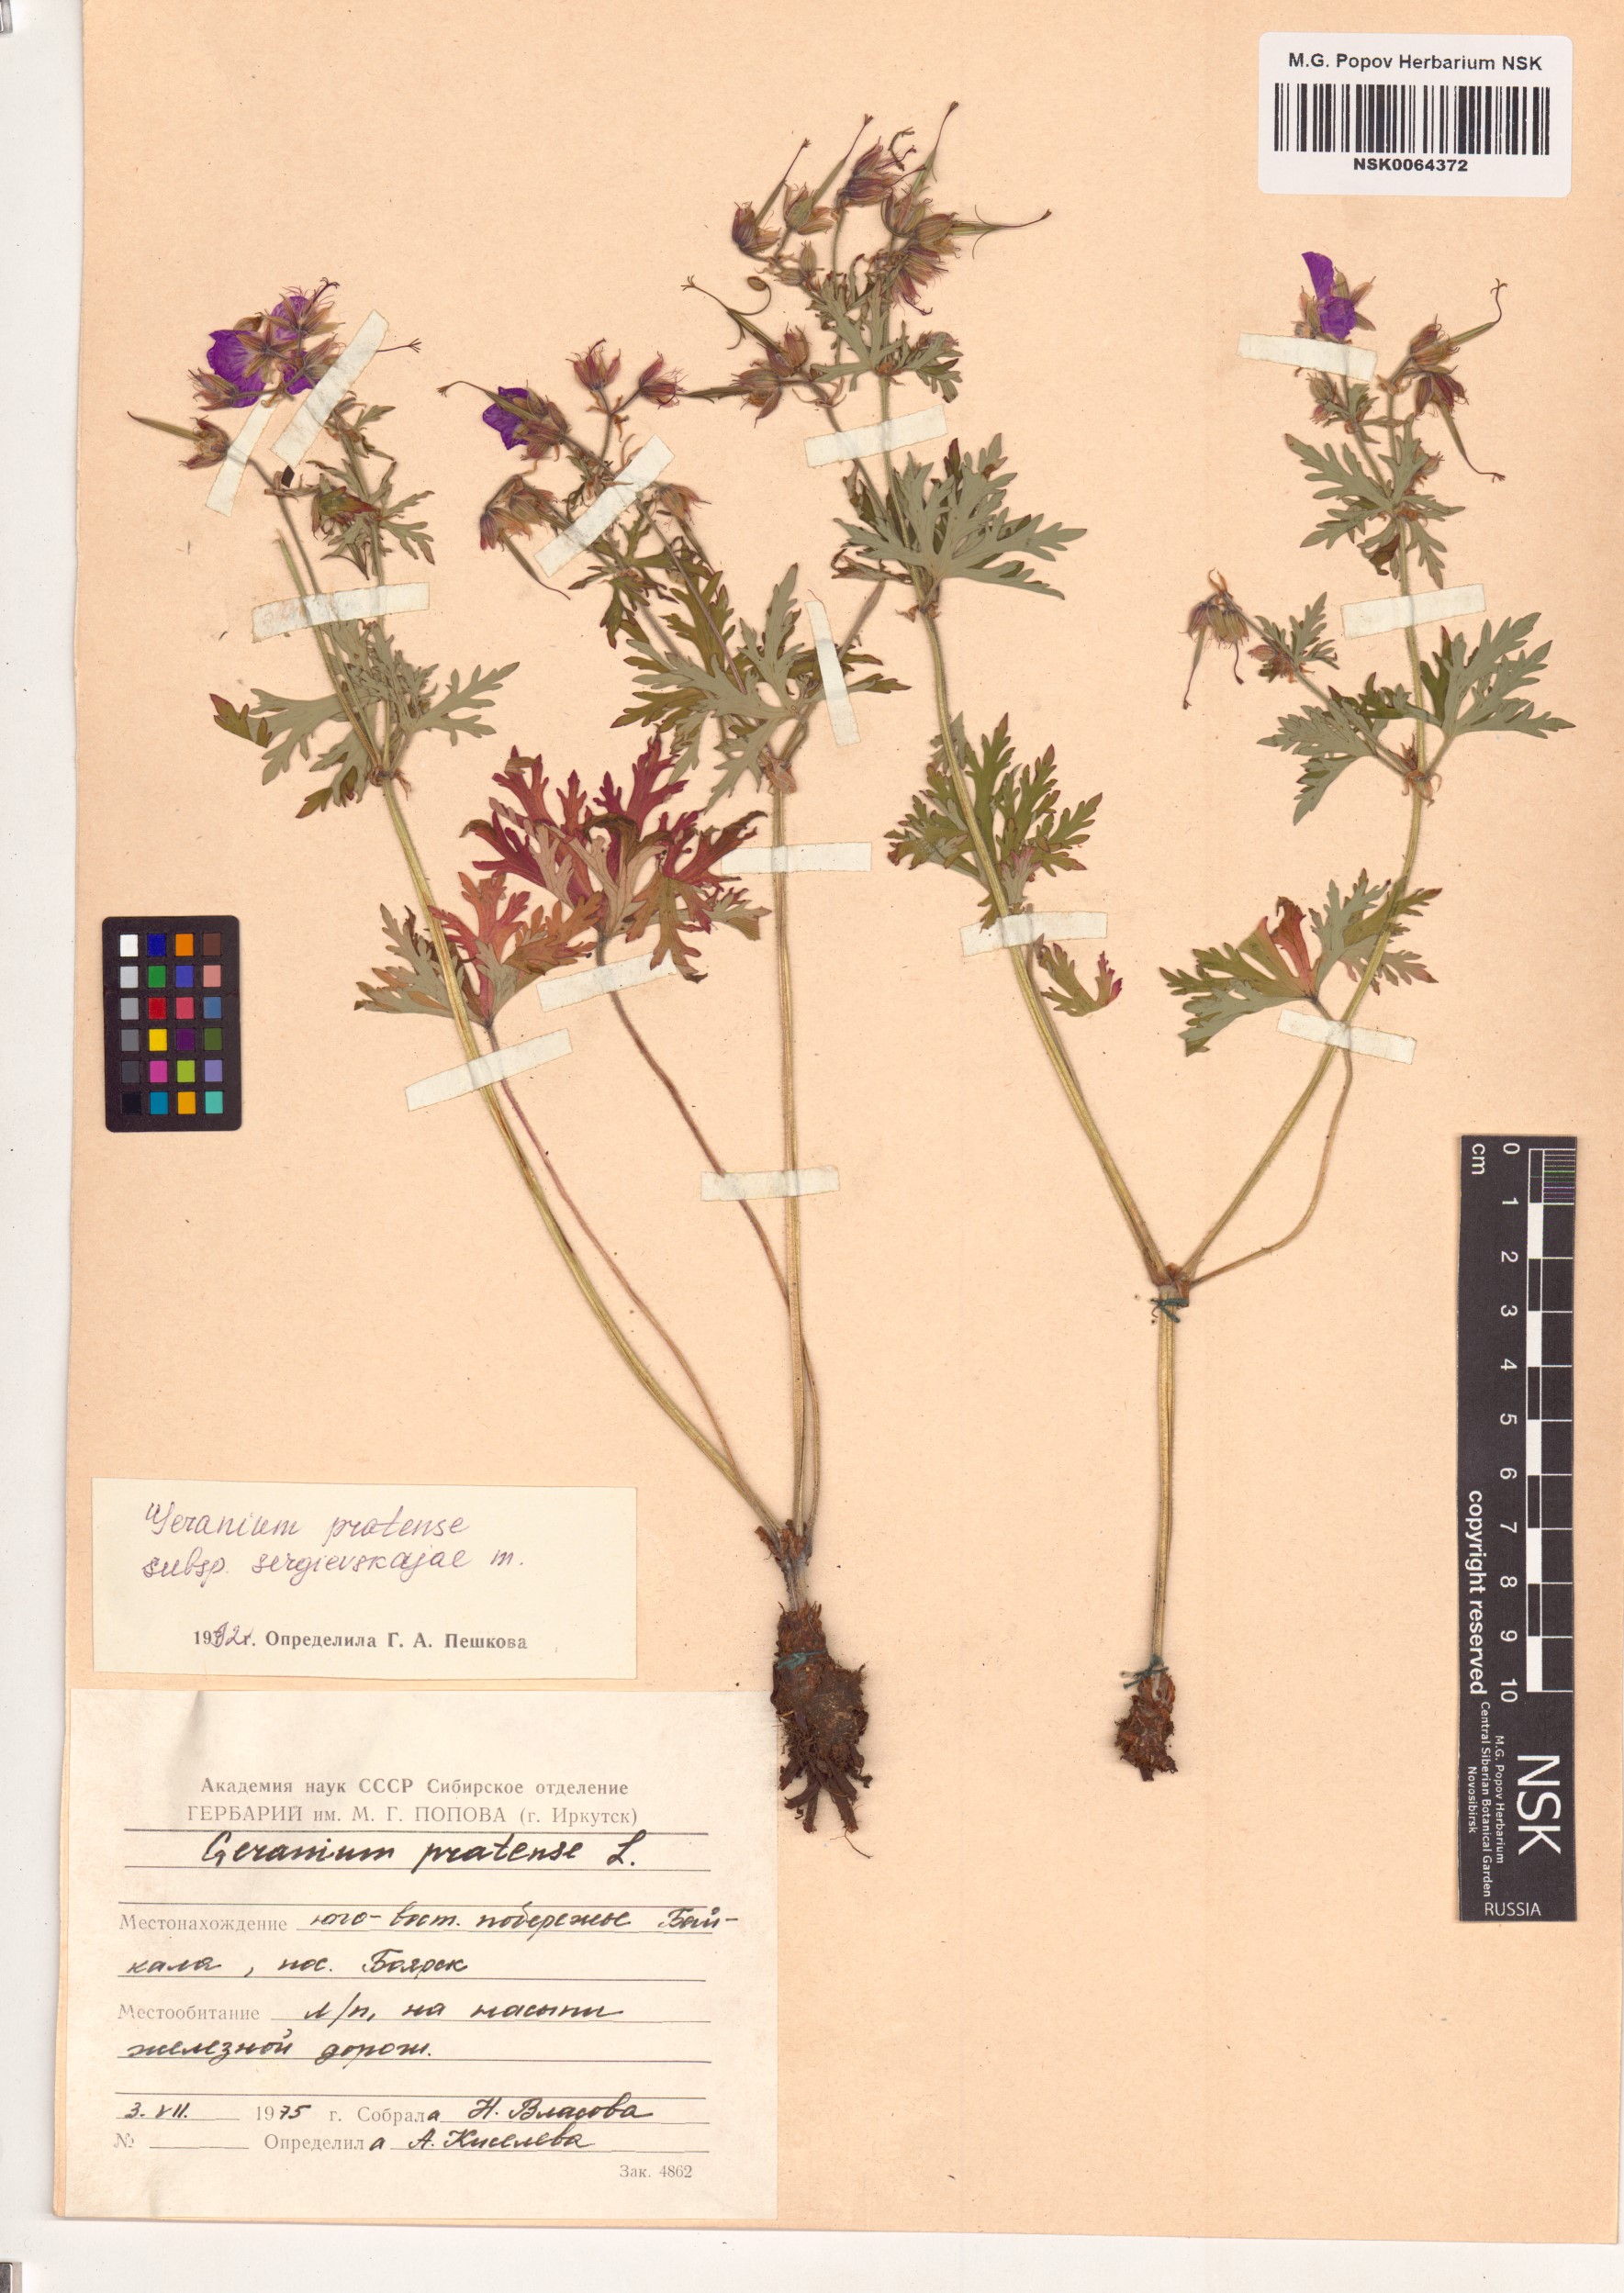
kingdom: Plantae
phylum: Tracheophyta
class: Magnoliopsida
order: Geraniales
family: Geraniaceae
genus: Geranium
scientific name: Geranium pratense
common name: Meadow crane's-bill
